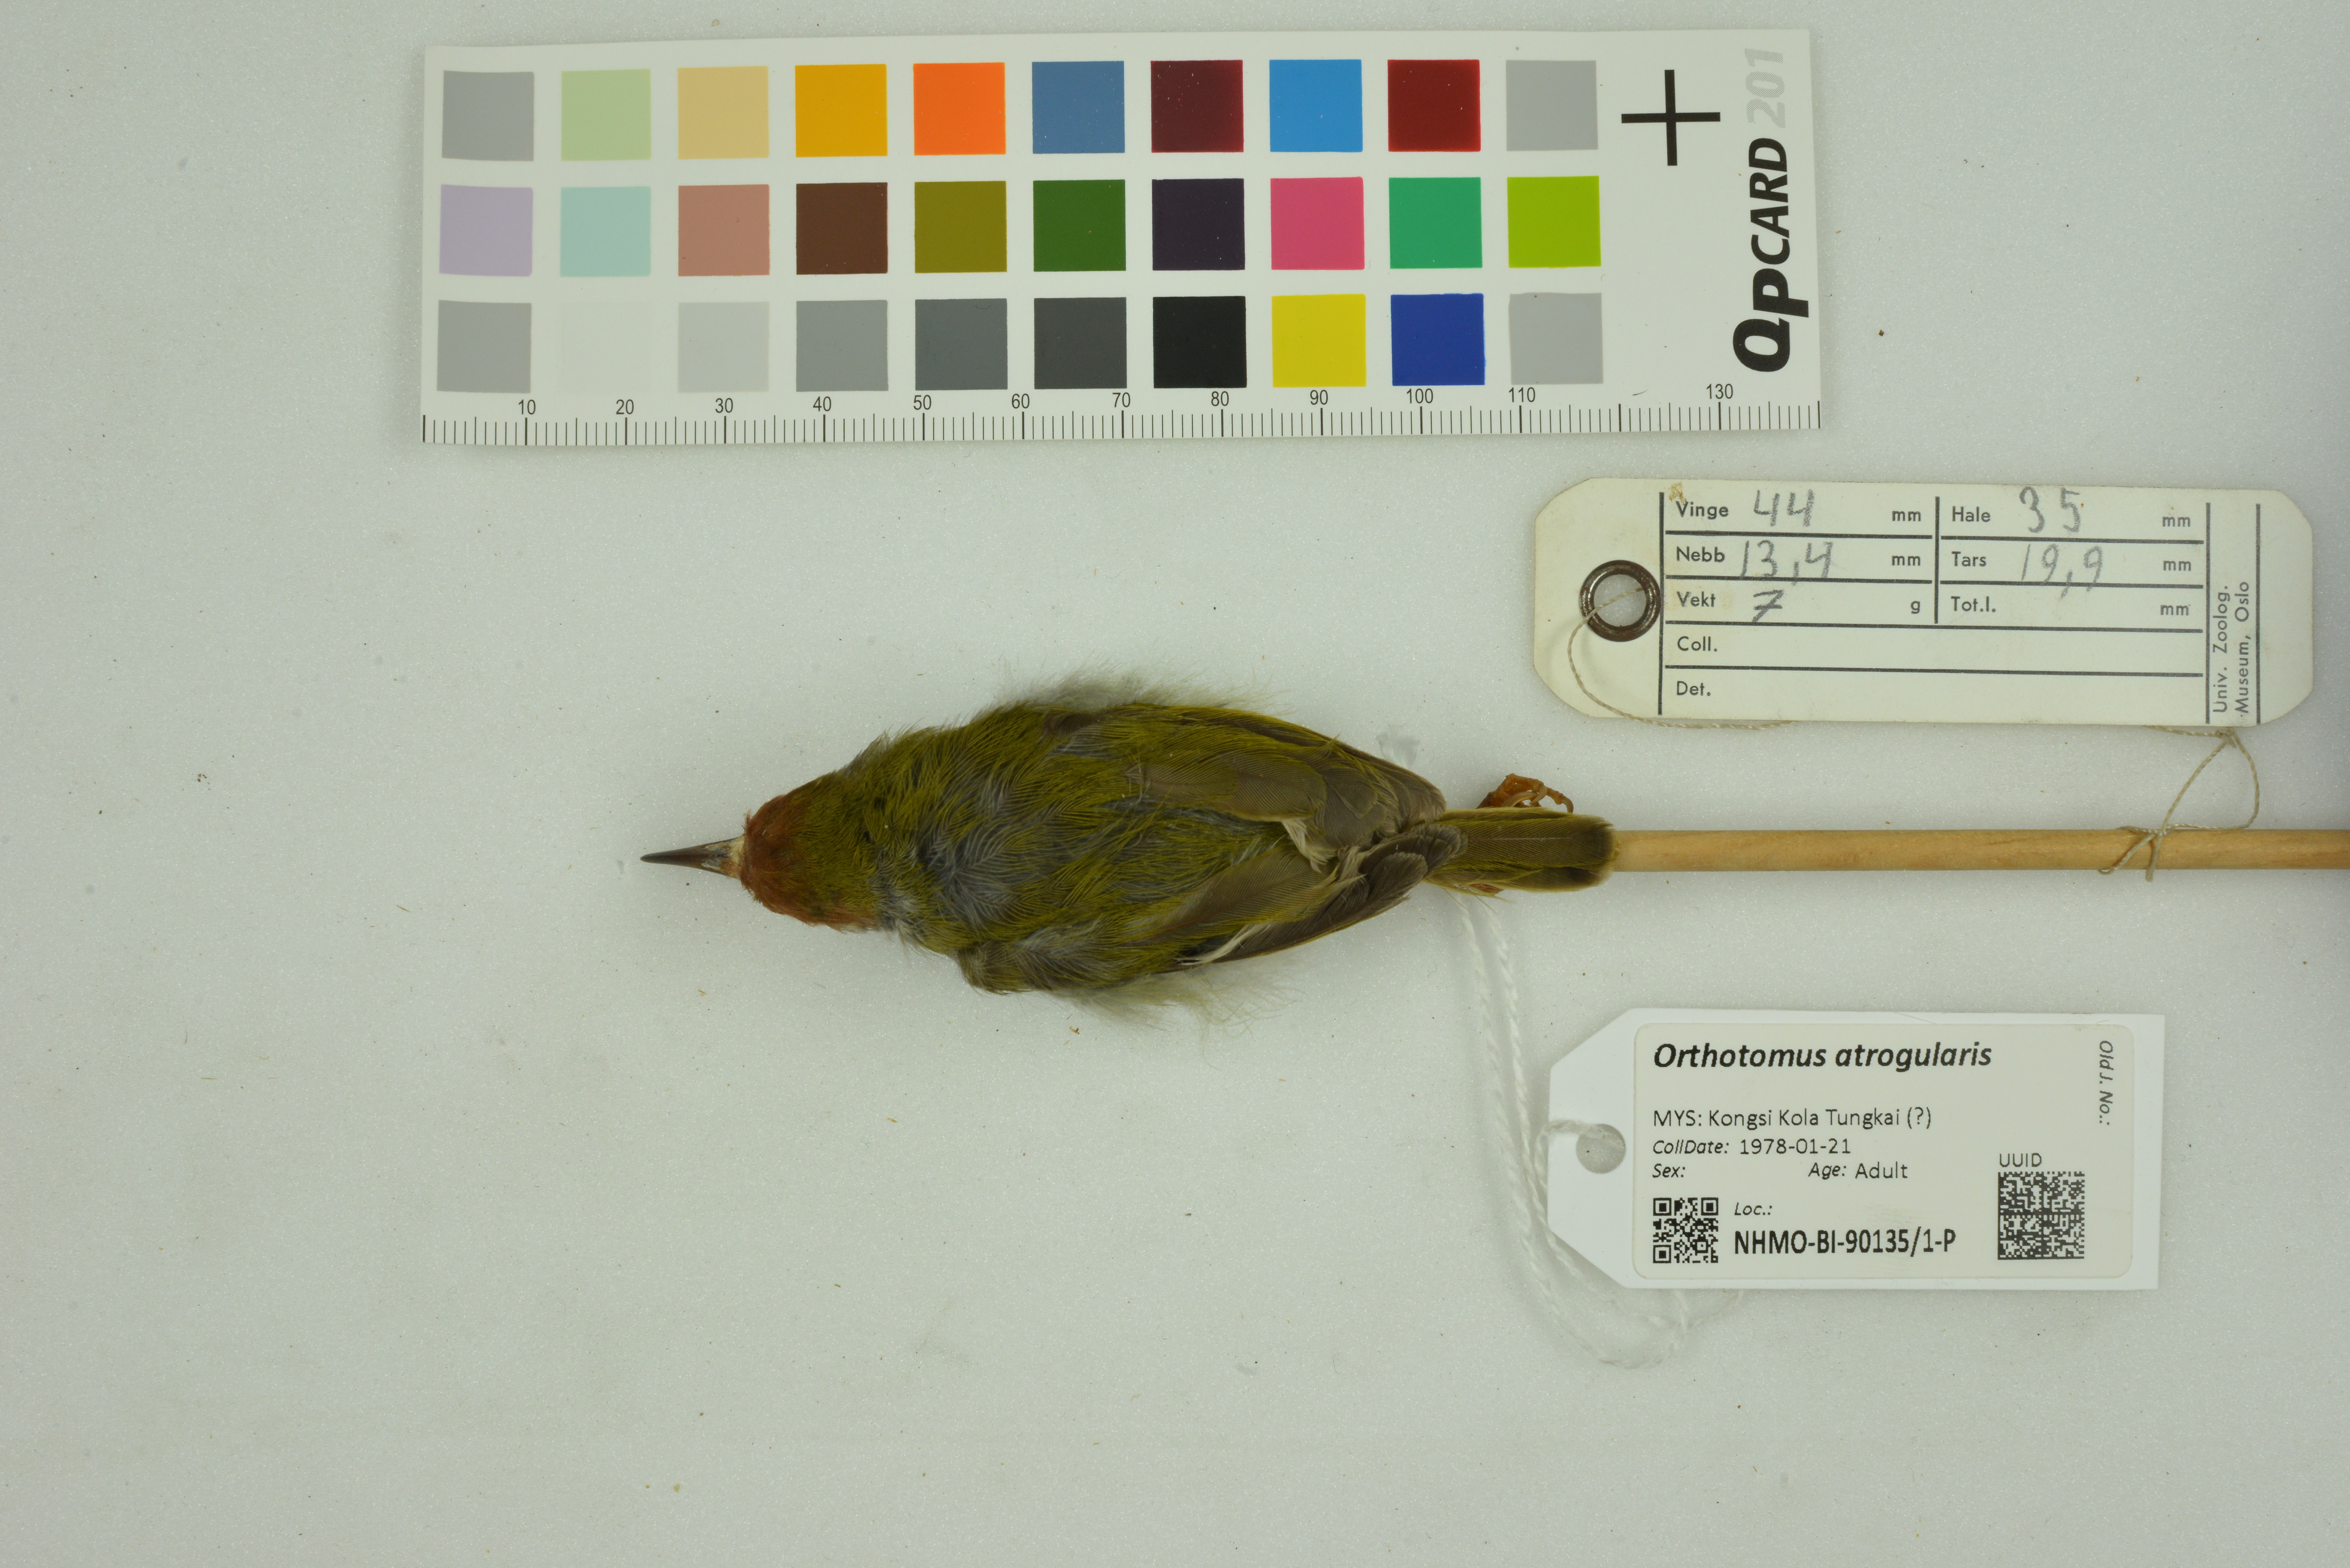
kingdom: Animalia
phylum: Chordata
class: Aves
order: Passeriformes
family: Cisticolidae
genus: Orthotomus
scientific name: Orthotomus atrogularis
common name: Dark-necked tailorbird
